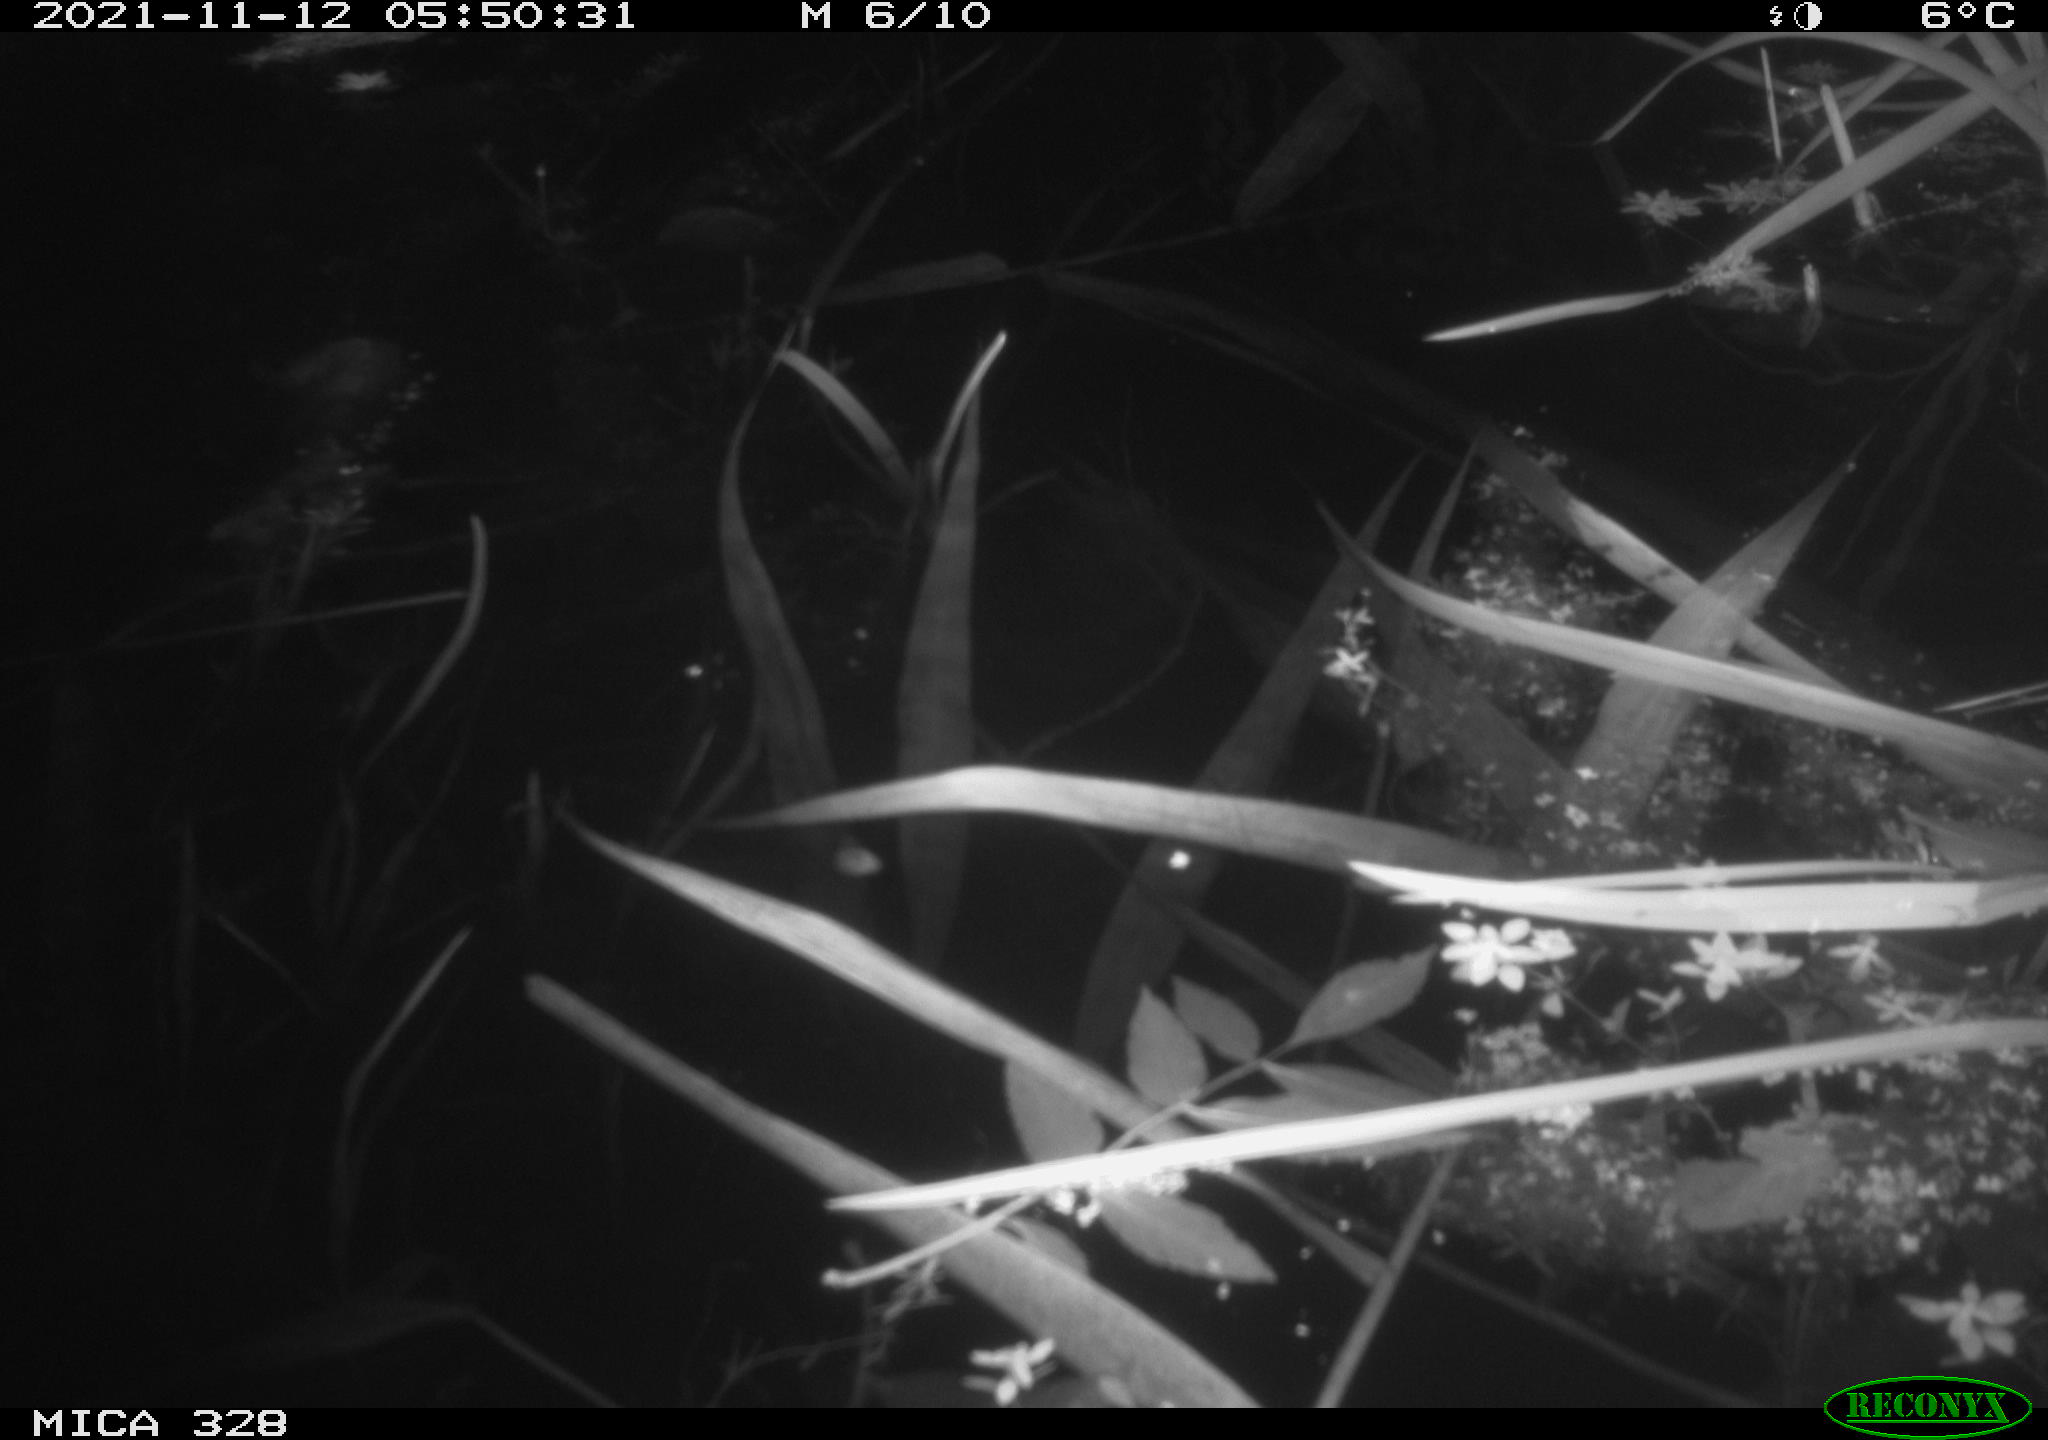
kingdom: Animalia
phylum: Chordata
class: Mammalia
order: Rodentia
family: Muridae
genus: Rattus
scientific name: Rattus norvegicus
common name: Brown rat
